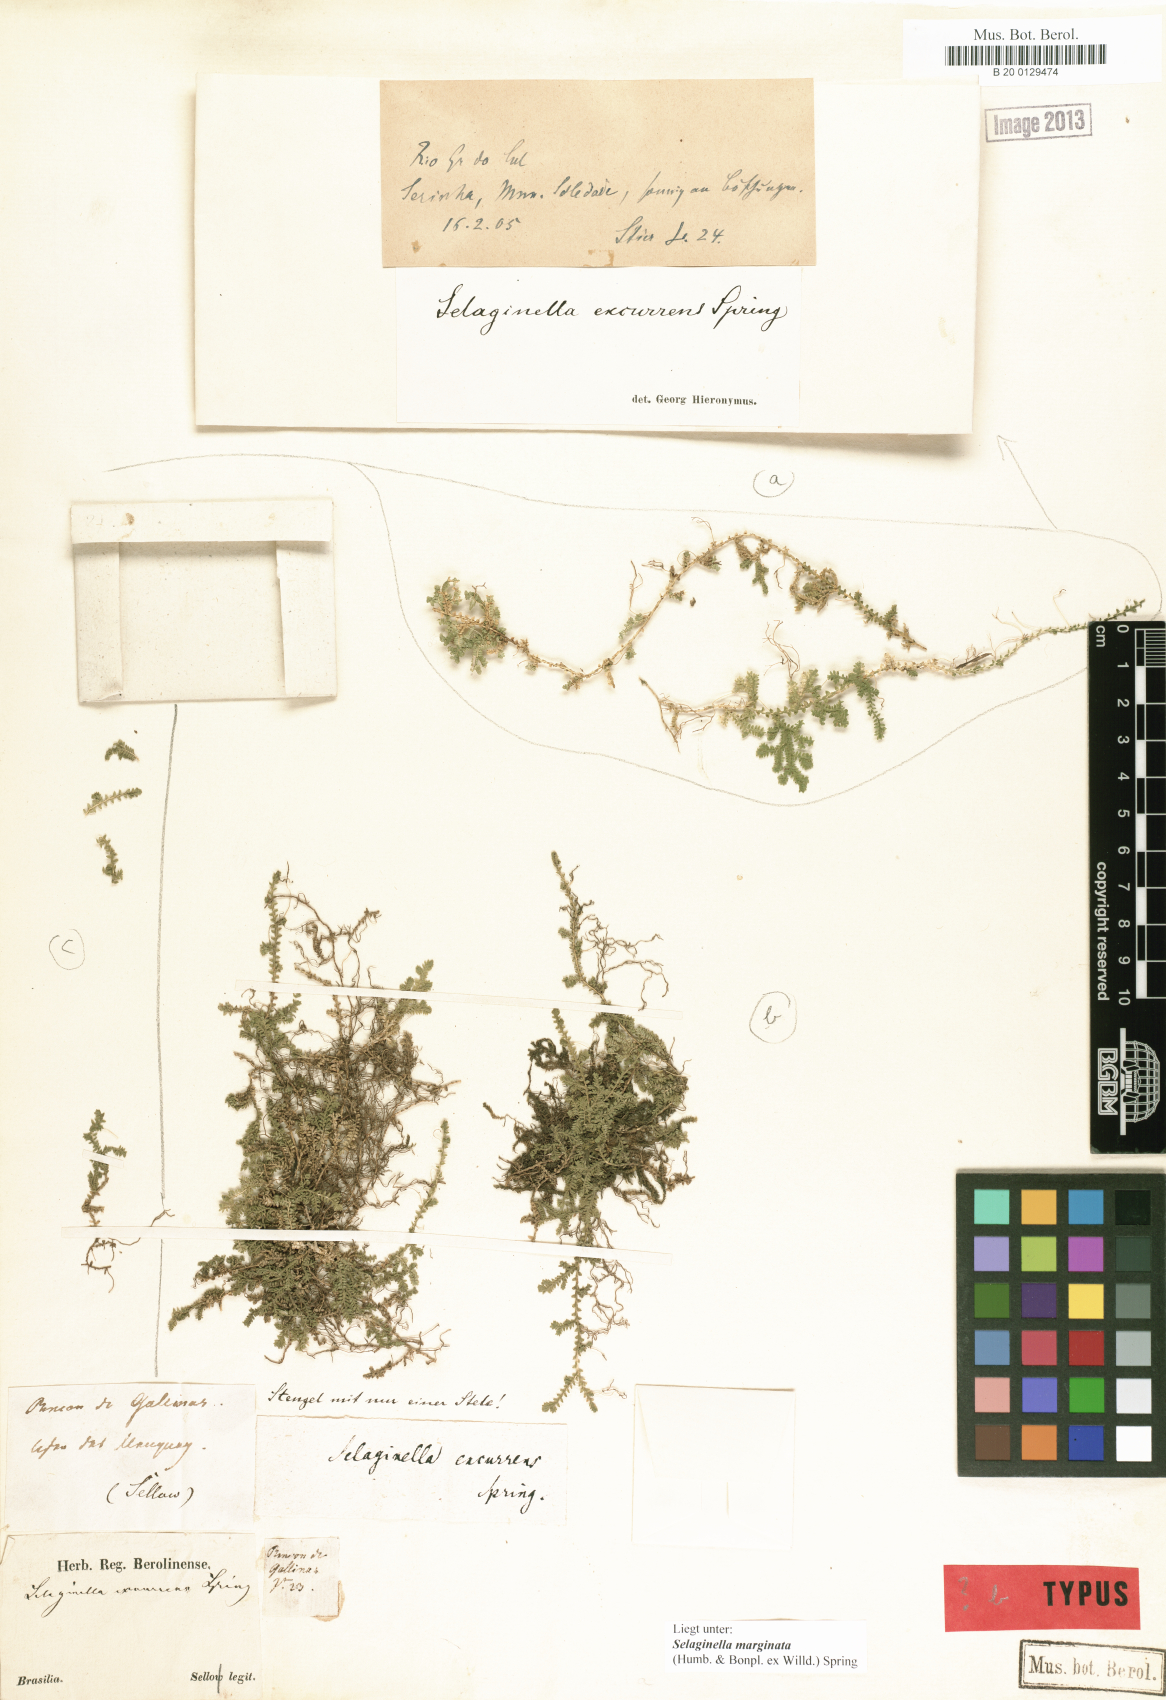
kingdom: Plantae
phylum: Tracheophyta
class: Lycopodiopsida
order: Selaginellales
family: Selaginellaceae
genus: Selaginella
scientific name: Selaginella marginata
